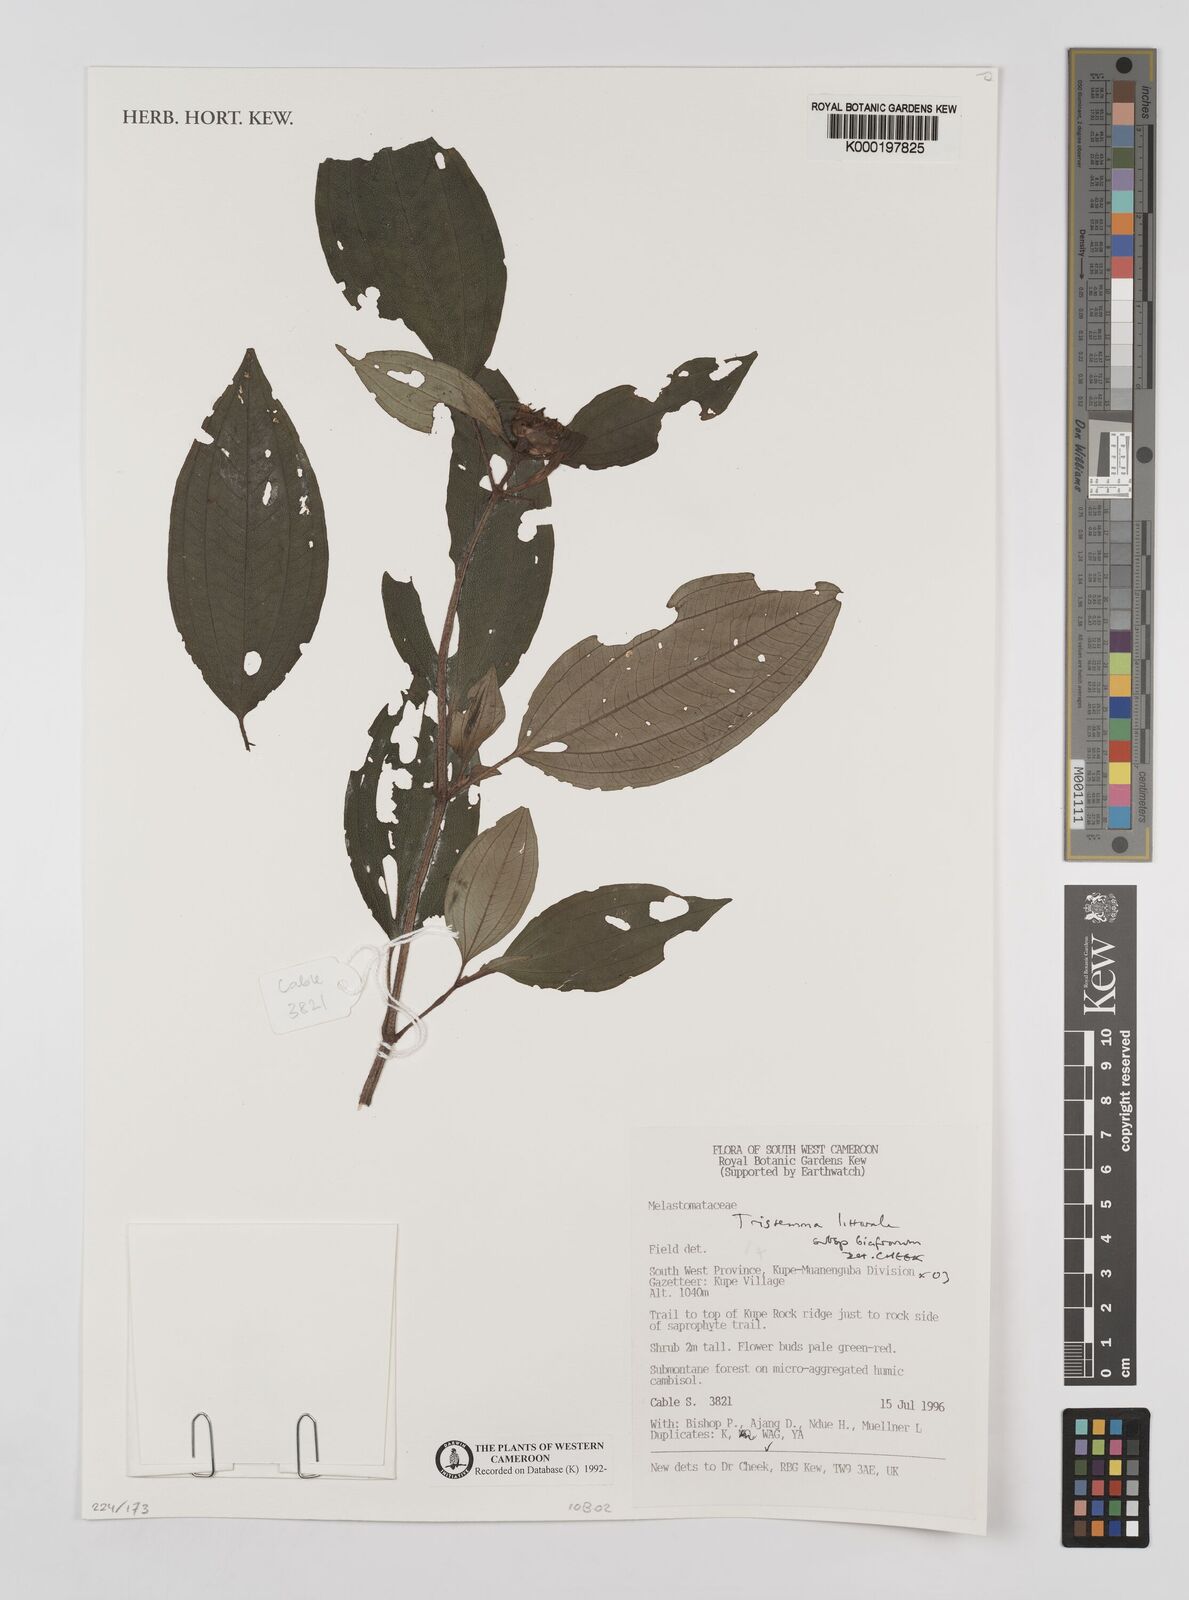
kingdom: Plantae
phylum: Tracheophyta
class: Magnoliopsida
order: Myrtales
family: Melastomataceae
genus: Tristemma
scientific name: Tristemma littorale
